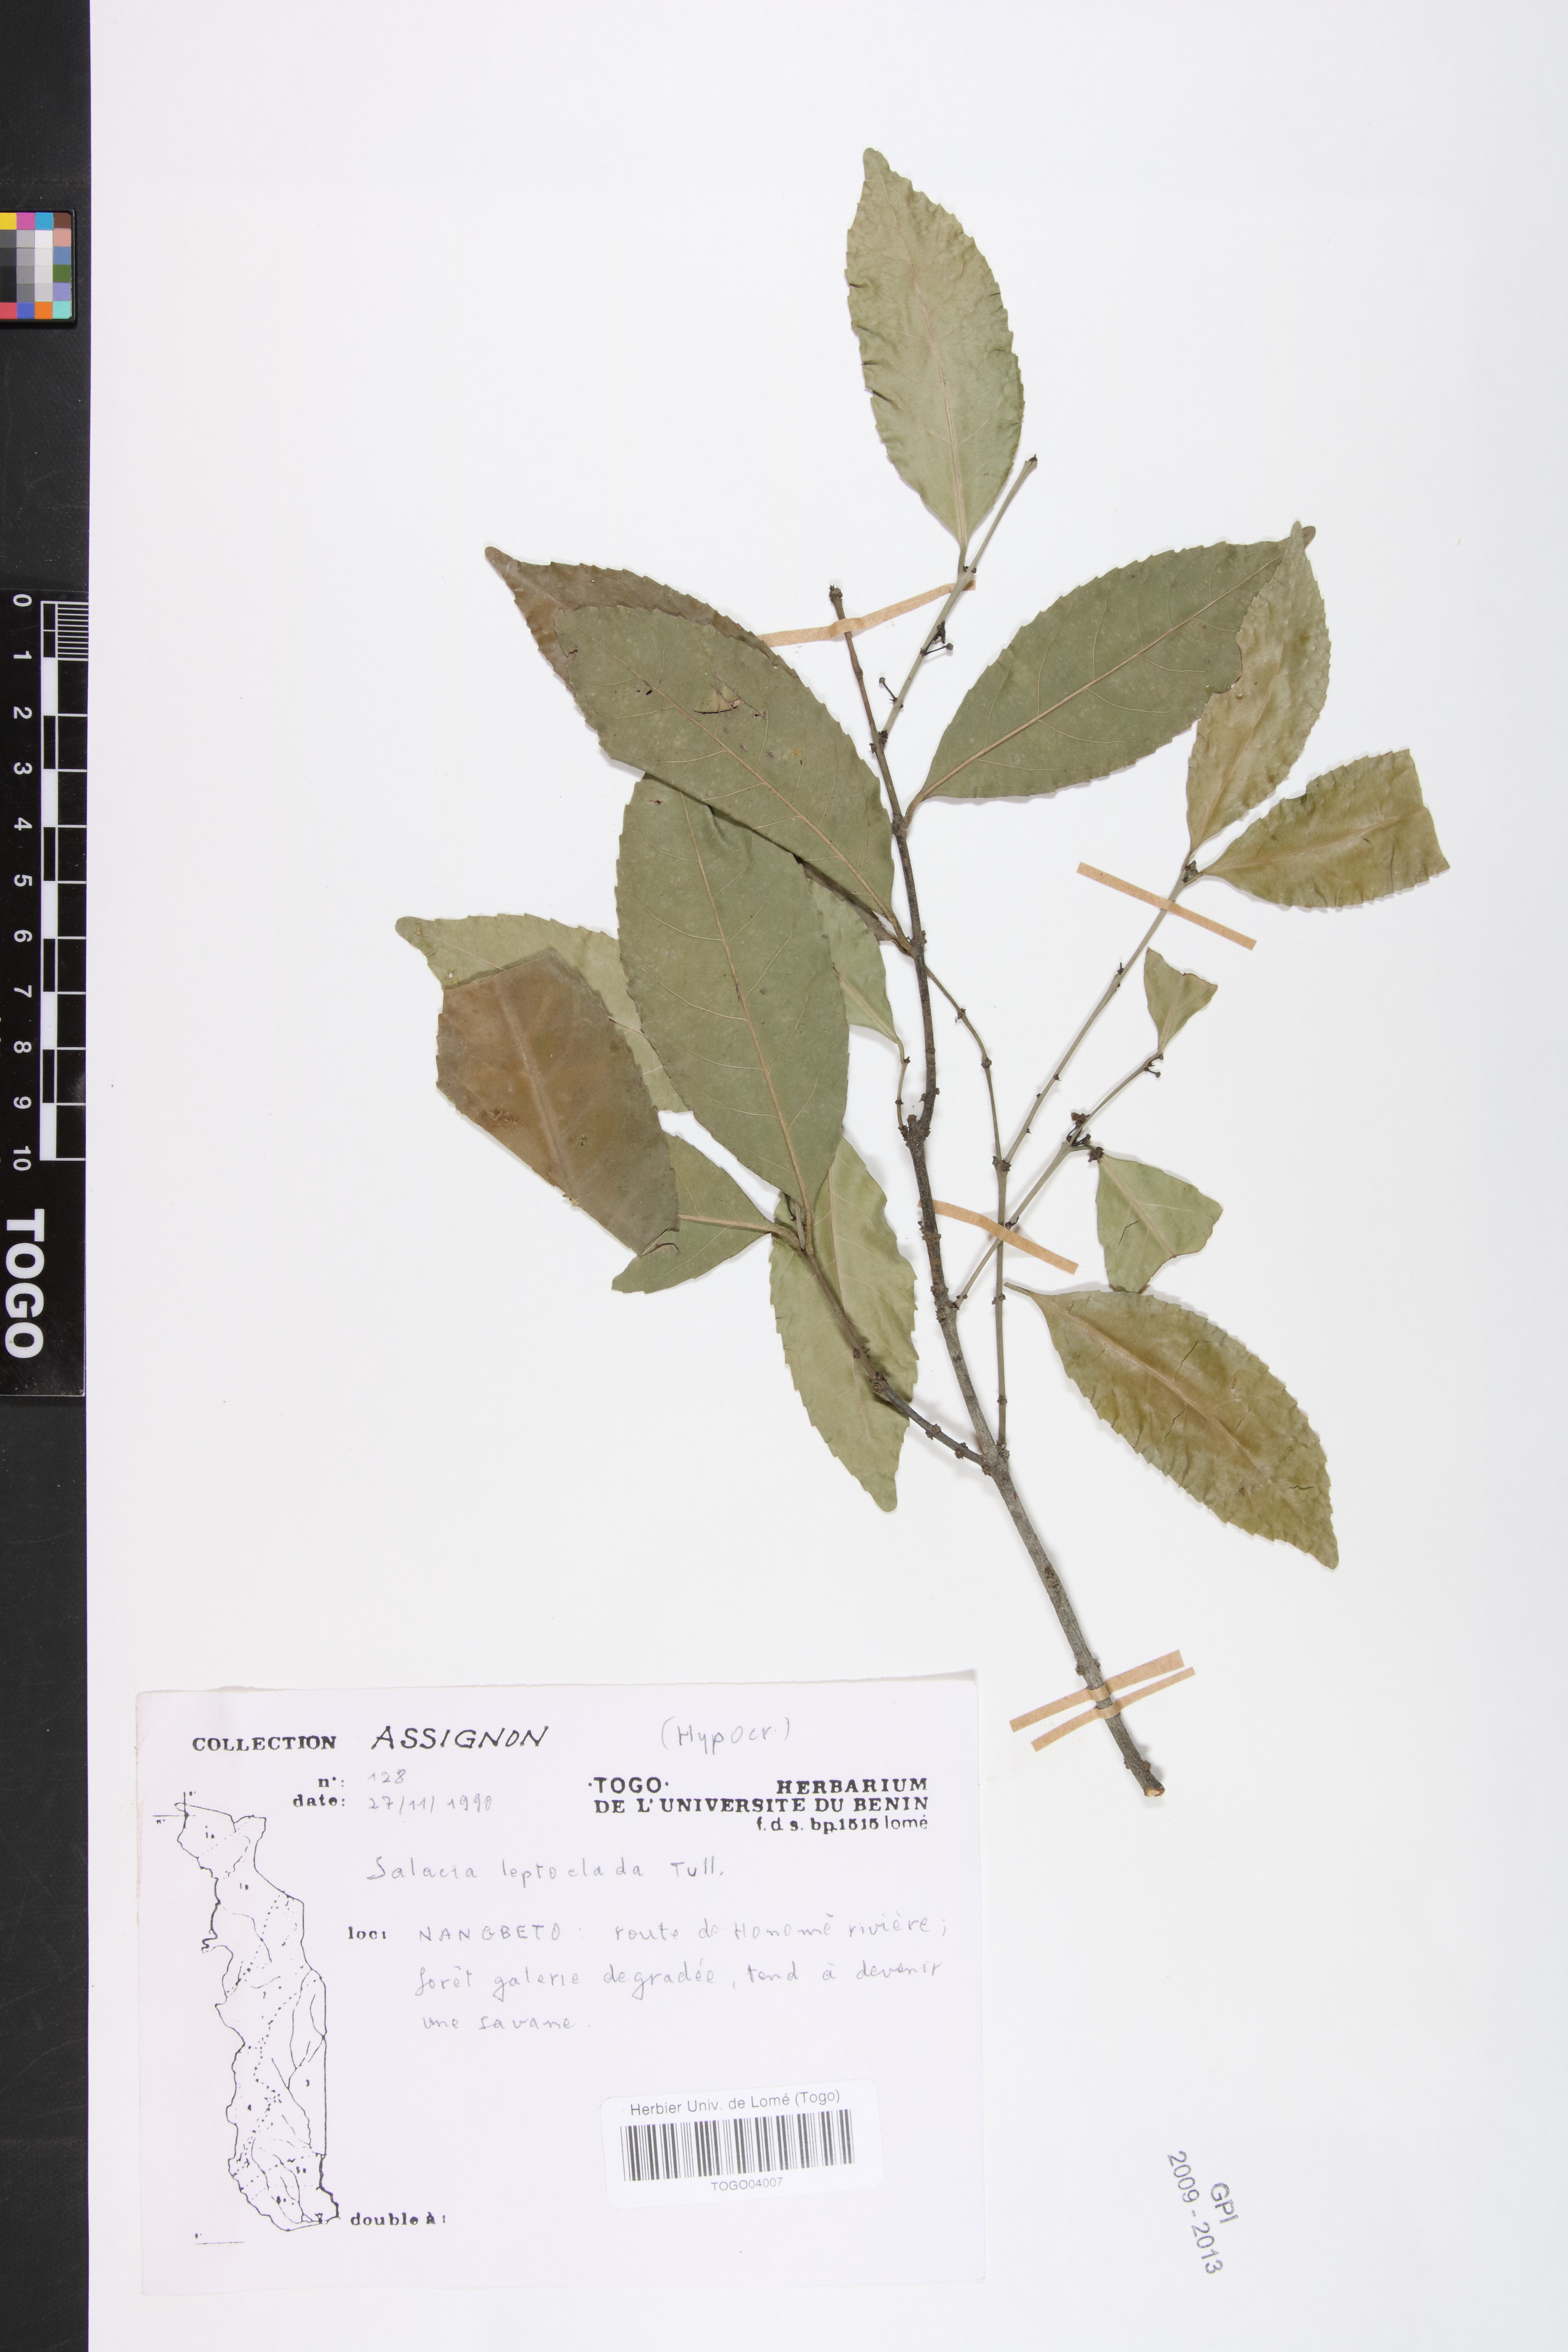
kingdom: Plantae
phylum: Tracheophyta
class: Magnoliopsida
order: Celastrales
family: Celastraceae
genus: Salacia
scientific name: Salacia leptoclada
